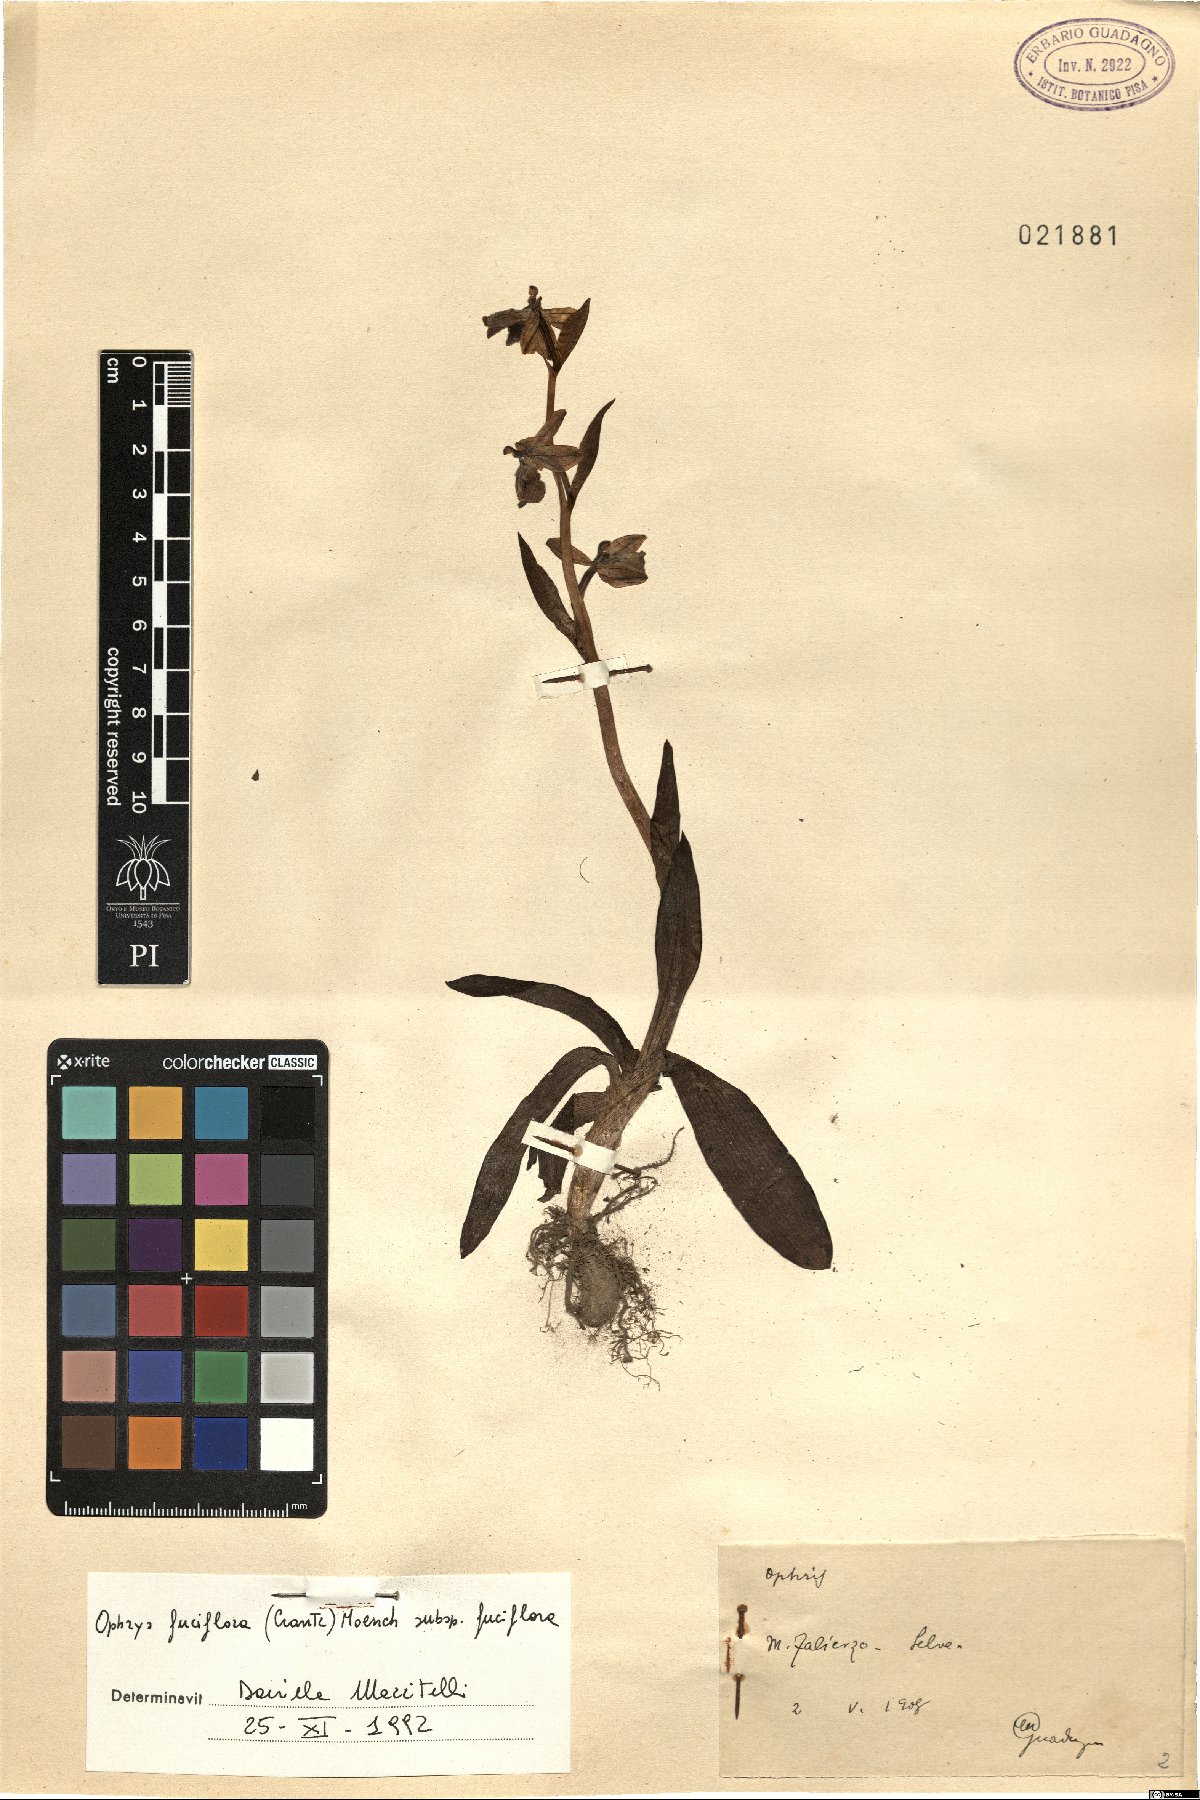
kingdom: Plantae
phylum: Tracheophyta
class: Liliopsida
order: Asparagales
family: Orchidaceae
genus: Ophrys
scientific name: Ophrys holosericea
